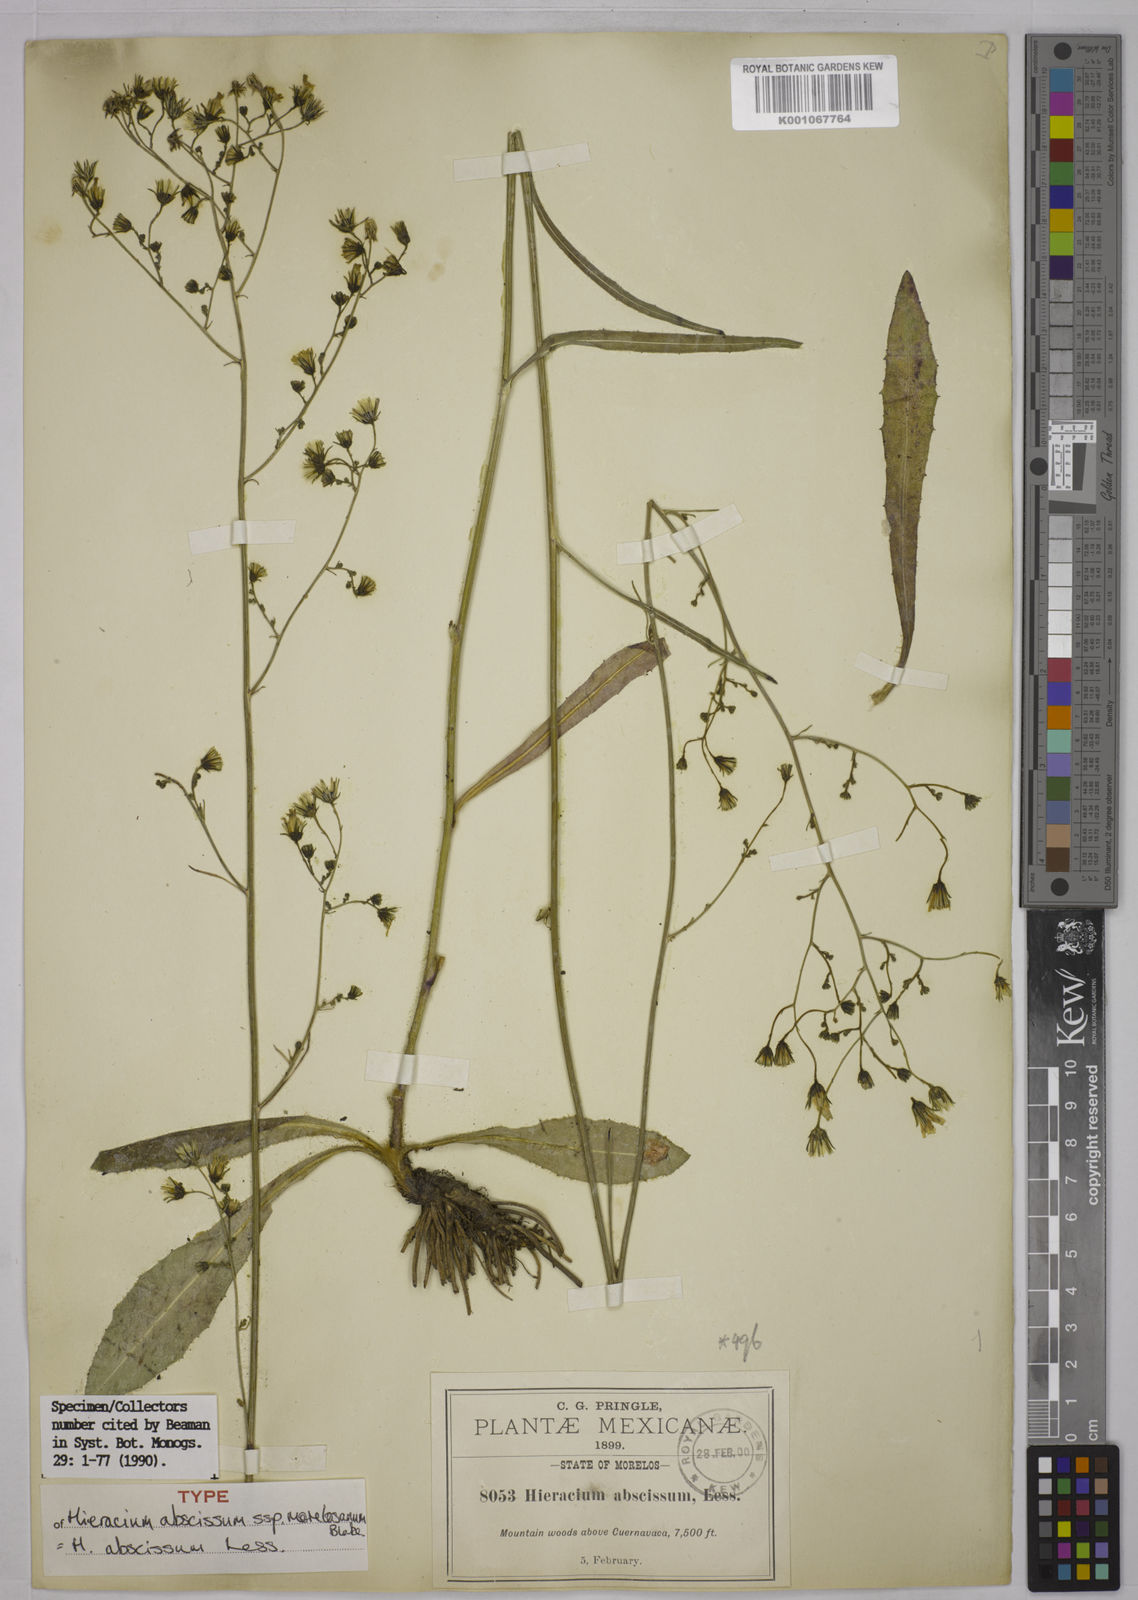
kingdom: Plantae
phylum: Tracheophyta
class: Magnoliopsida
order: Asterales
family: Asteraceae
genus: Hieracium
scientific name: Hieracium abscissum
